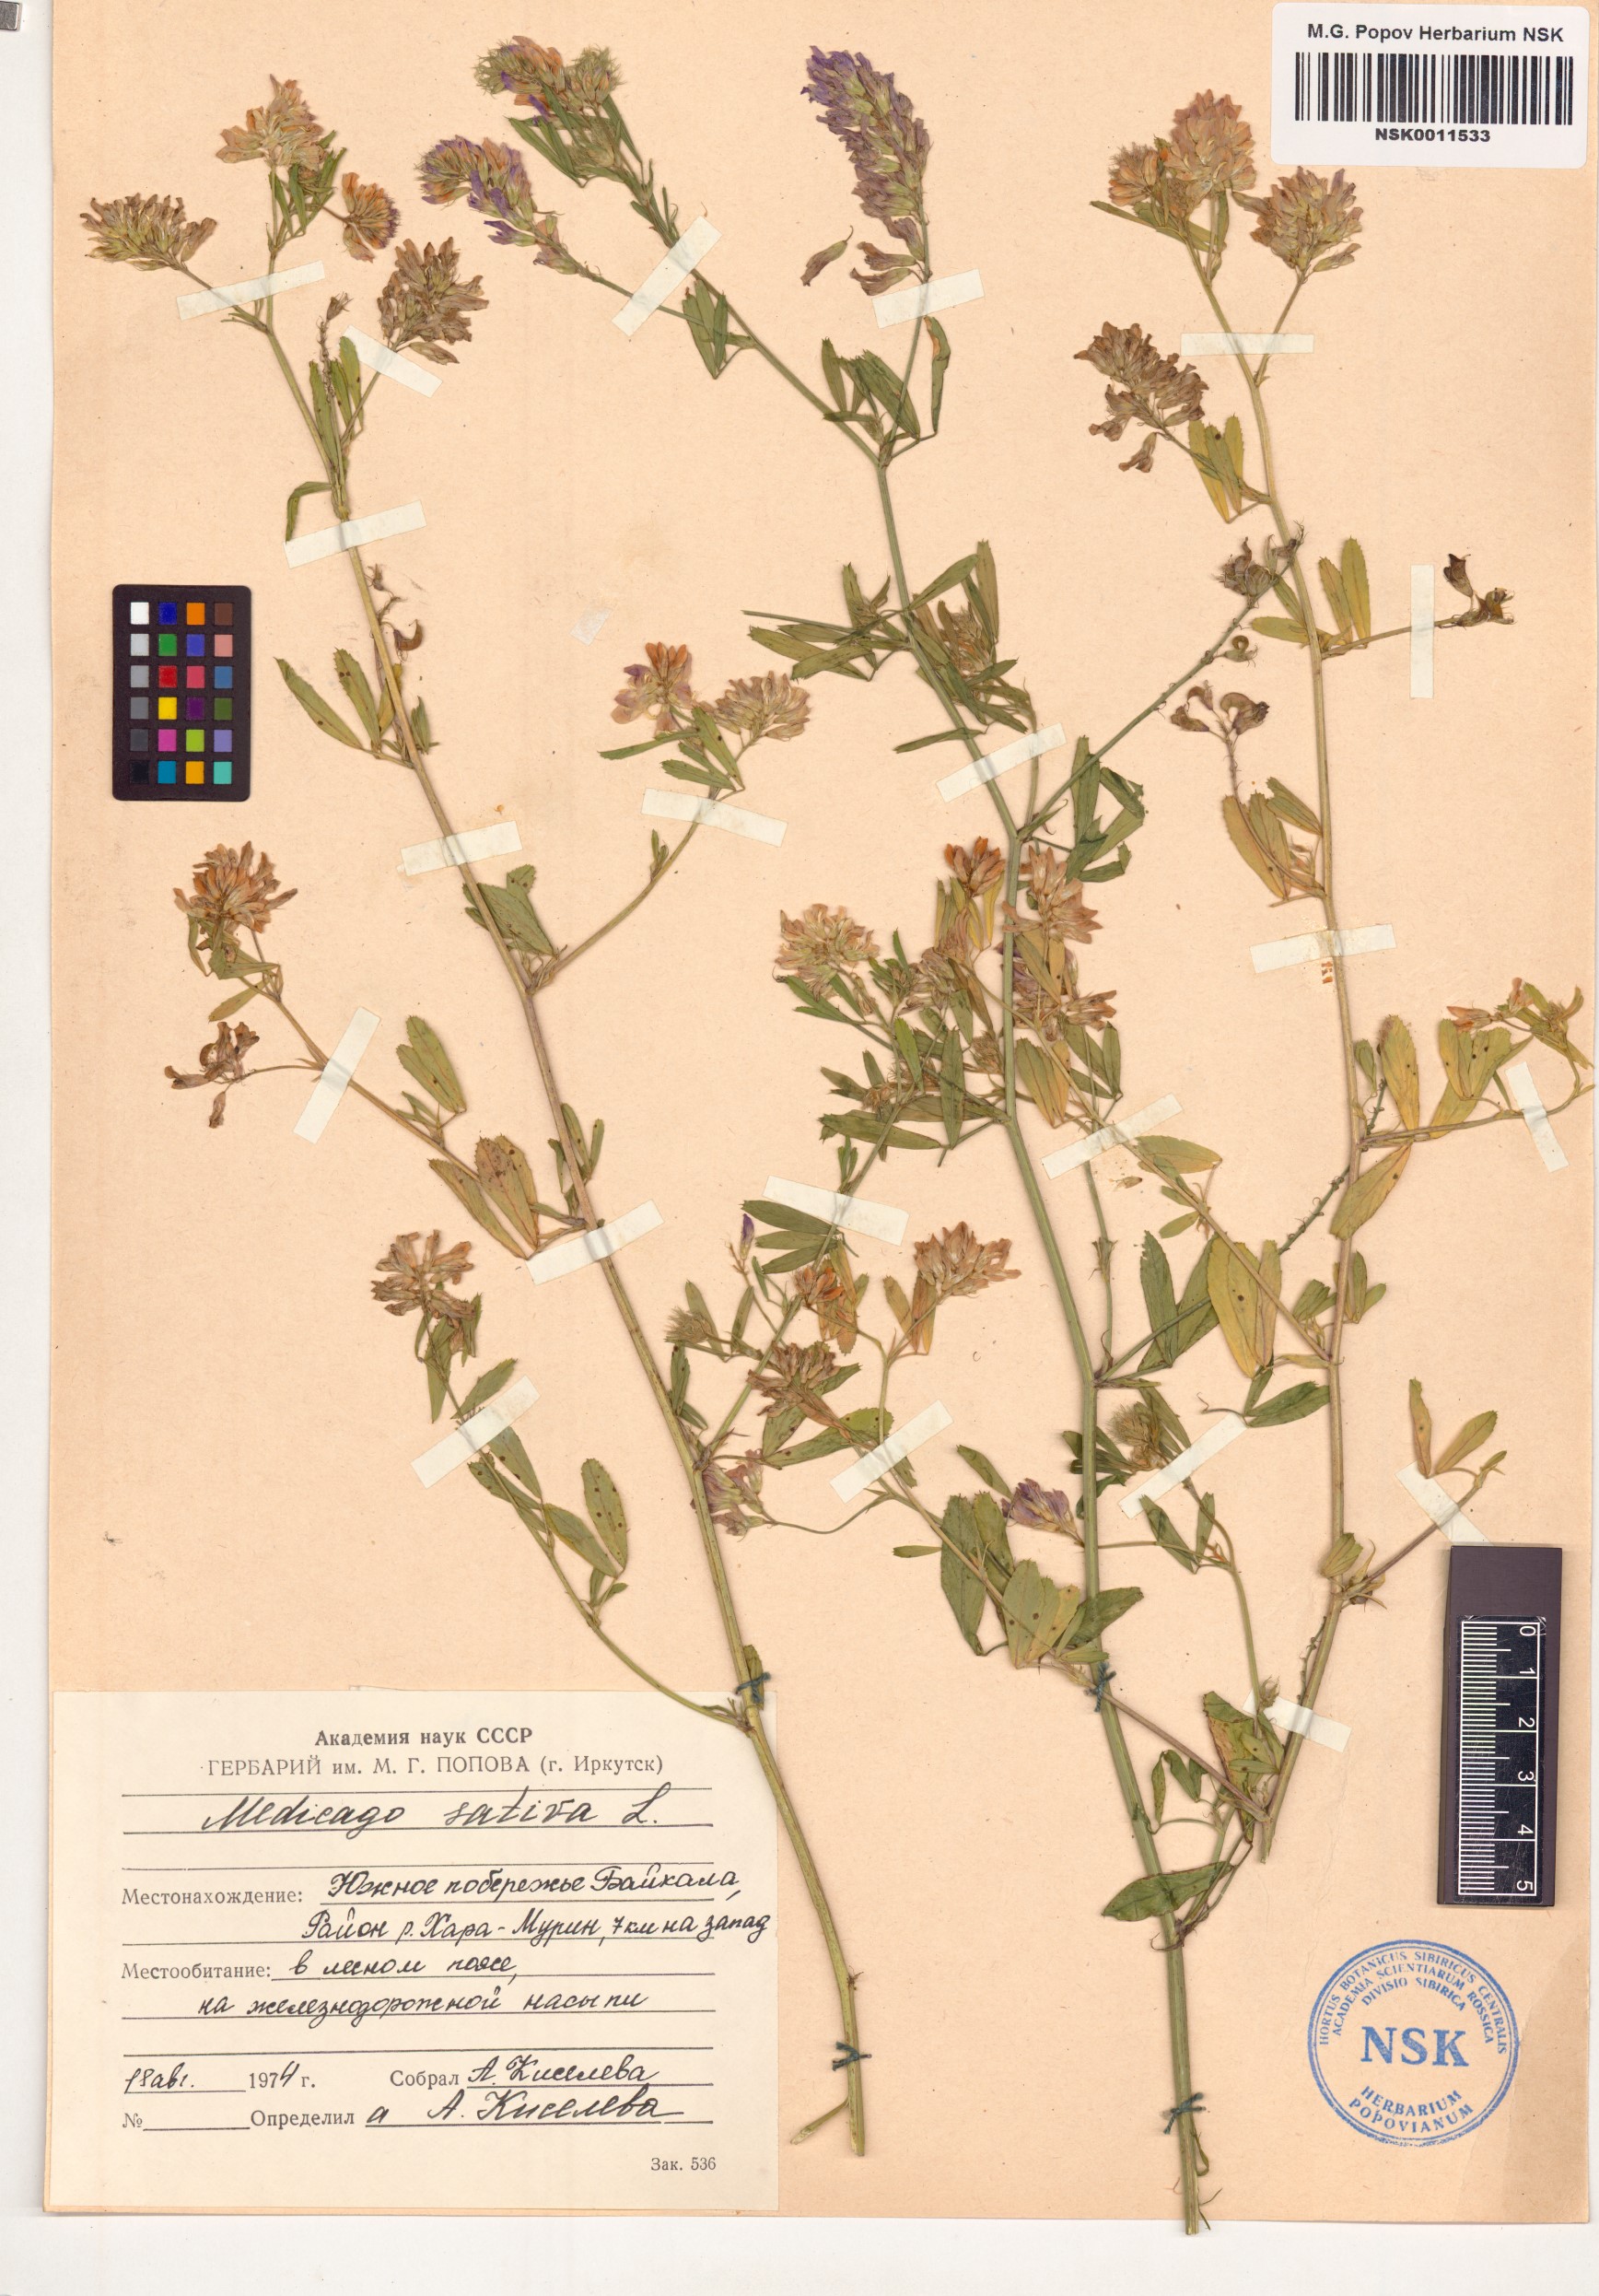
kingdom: Plantae
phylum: Tracheophyta
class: Magnoliopsida
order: Fabales
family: Fabaceae
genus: Medicago
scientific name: Medicago sativa
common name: Alfalfa
